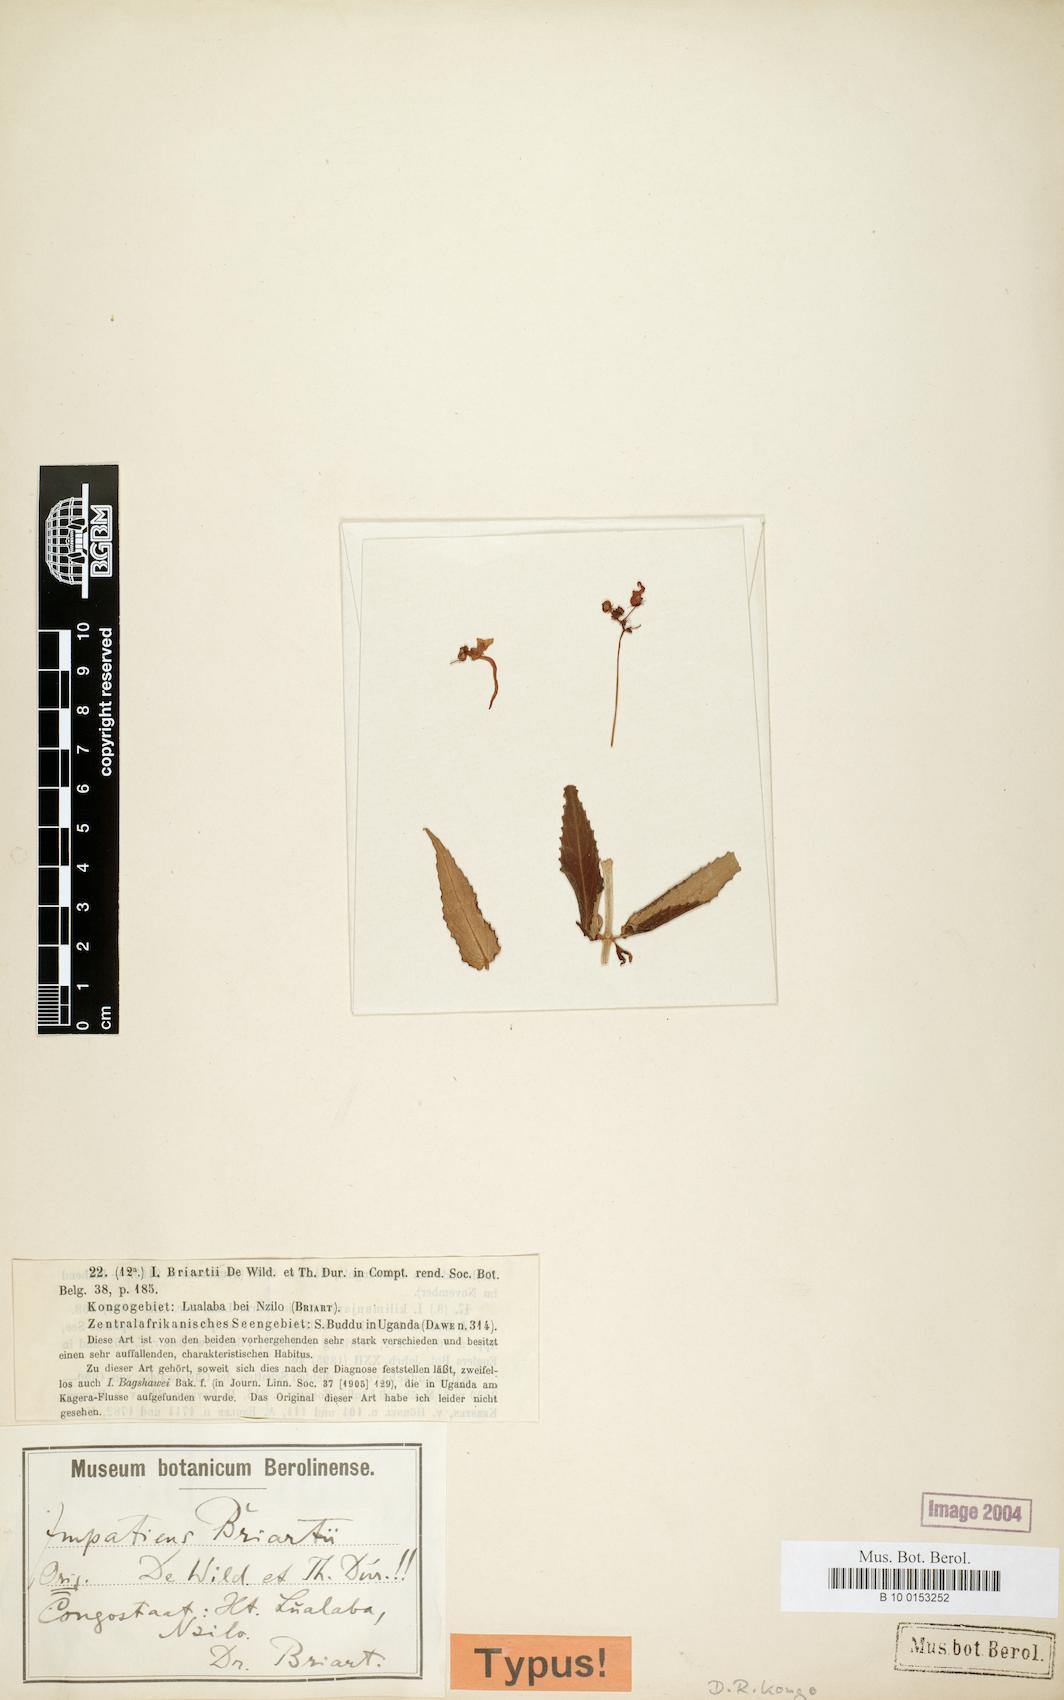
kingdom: Plantae
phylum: Tracheophyta
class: Magnoliopsida
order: Ericales
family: Balsaminaceae
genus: Impatiens
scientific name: Impatiens briartii
